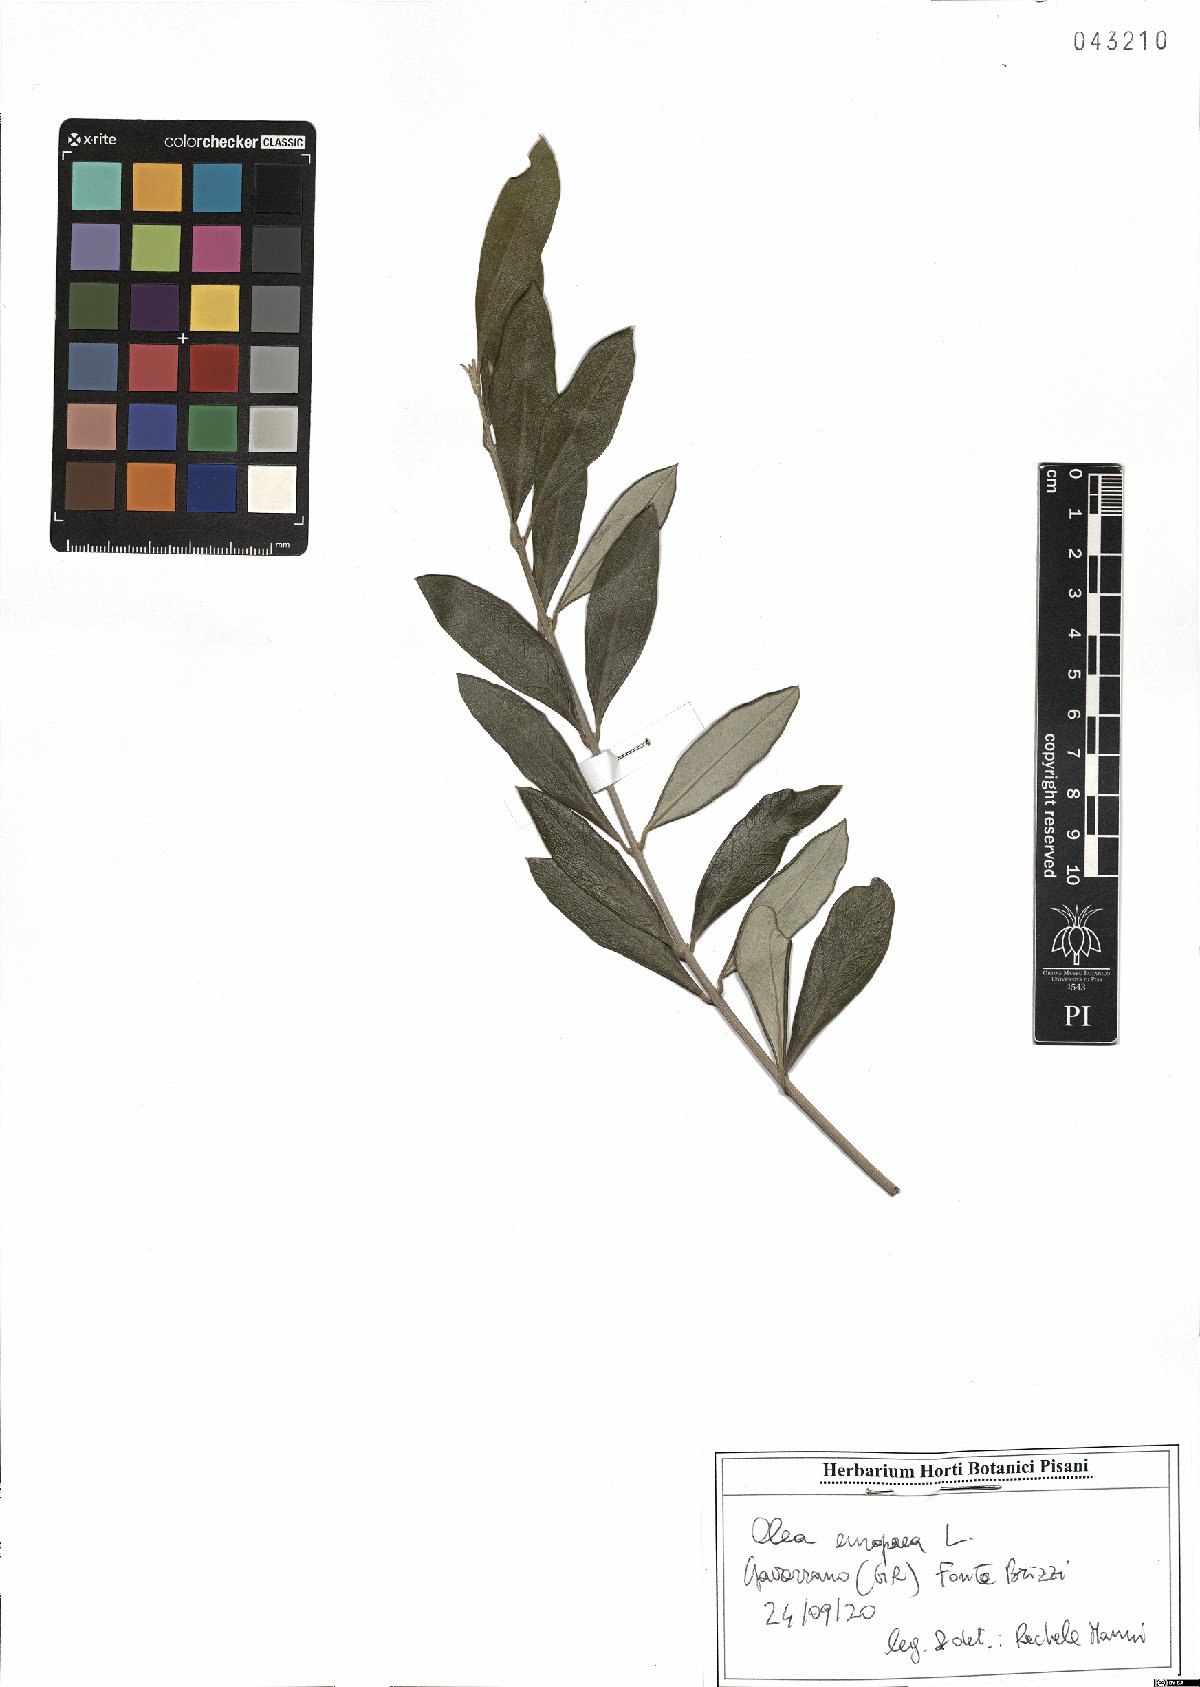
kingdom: Plantae
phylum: Tracheophyta
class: Magnoliopsida
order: Lamiales
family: Oleaceae
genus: Olea
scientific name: Olea europaea
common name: Olive
